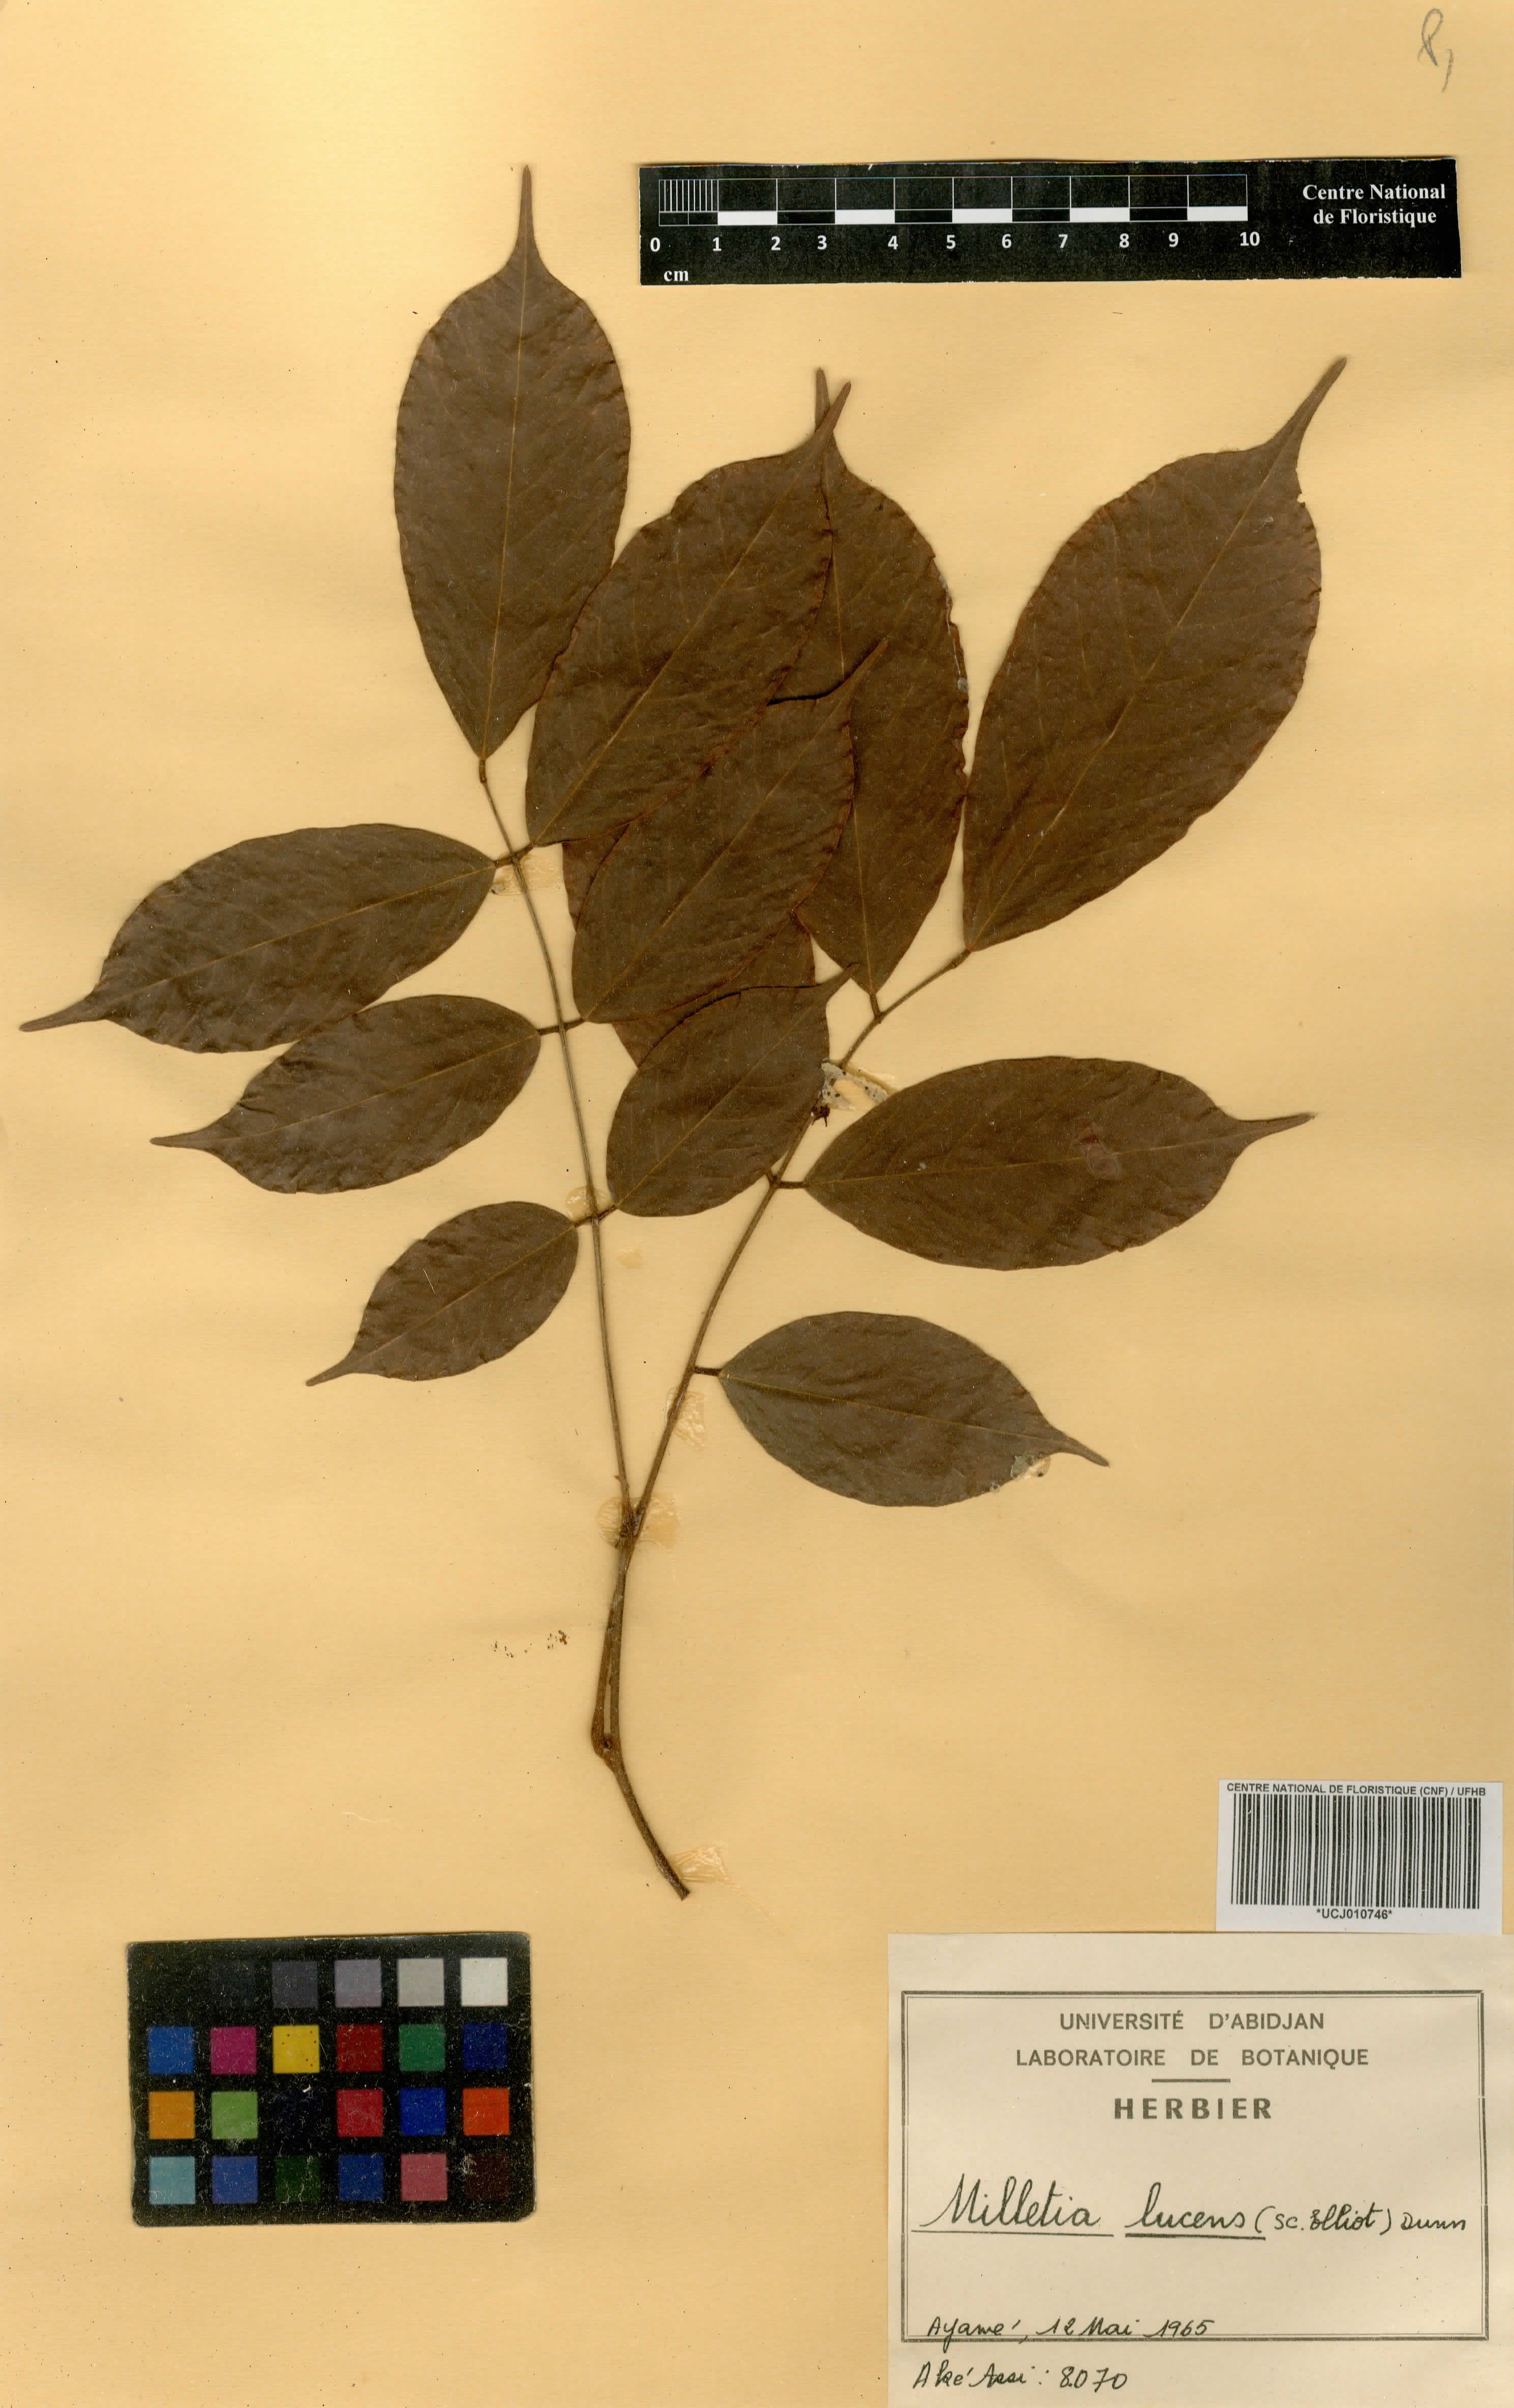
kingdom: Plantae
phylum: Tracheophyta
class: Magnoliopsida
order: Fabales
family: Fabaceae
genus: Millettia
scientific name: Millettia lucens
